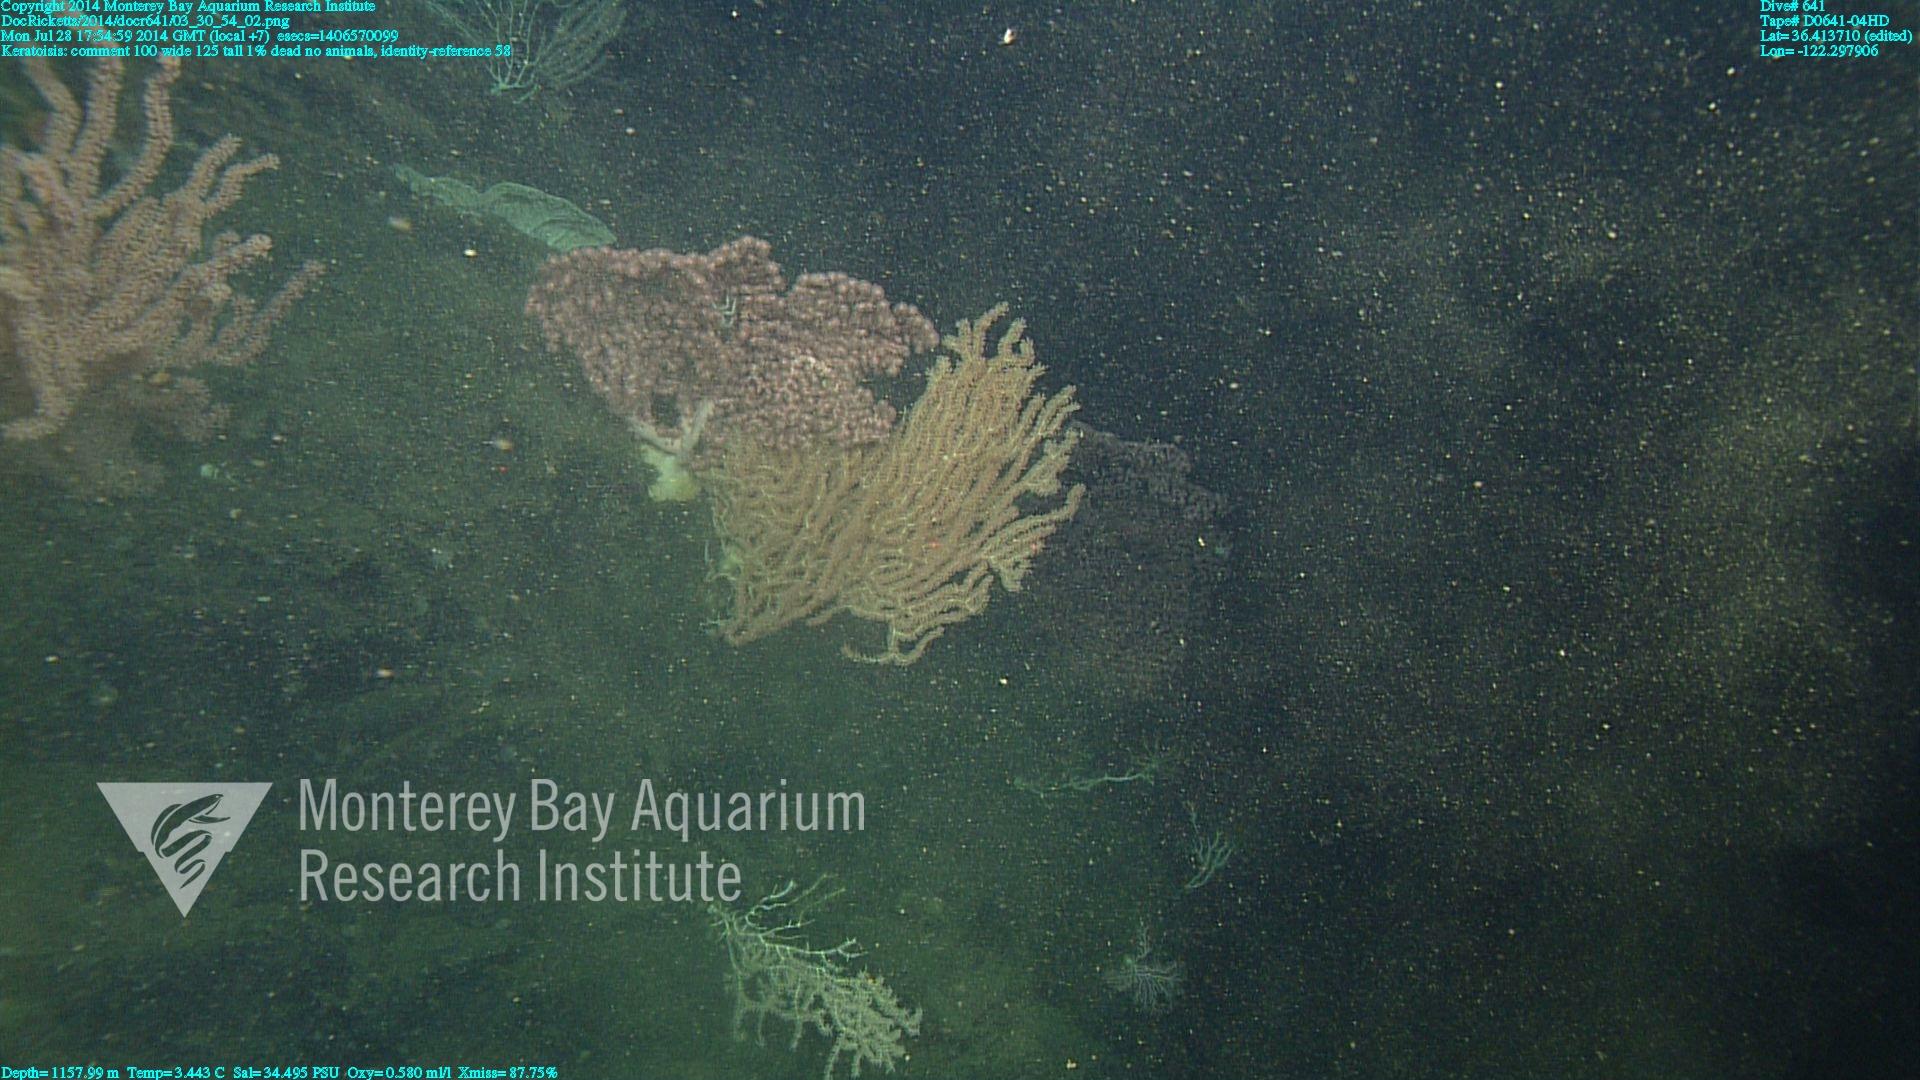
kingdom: Animalia
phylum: Cnidaria
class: Anthozoa
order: Scleralcyonacea
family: Keratoisididae
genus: Keratoisis
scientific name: Keratoisis
